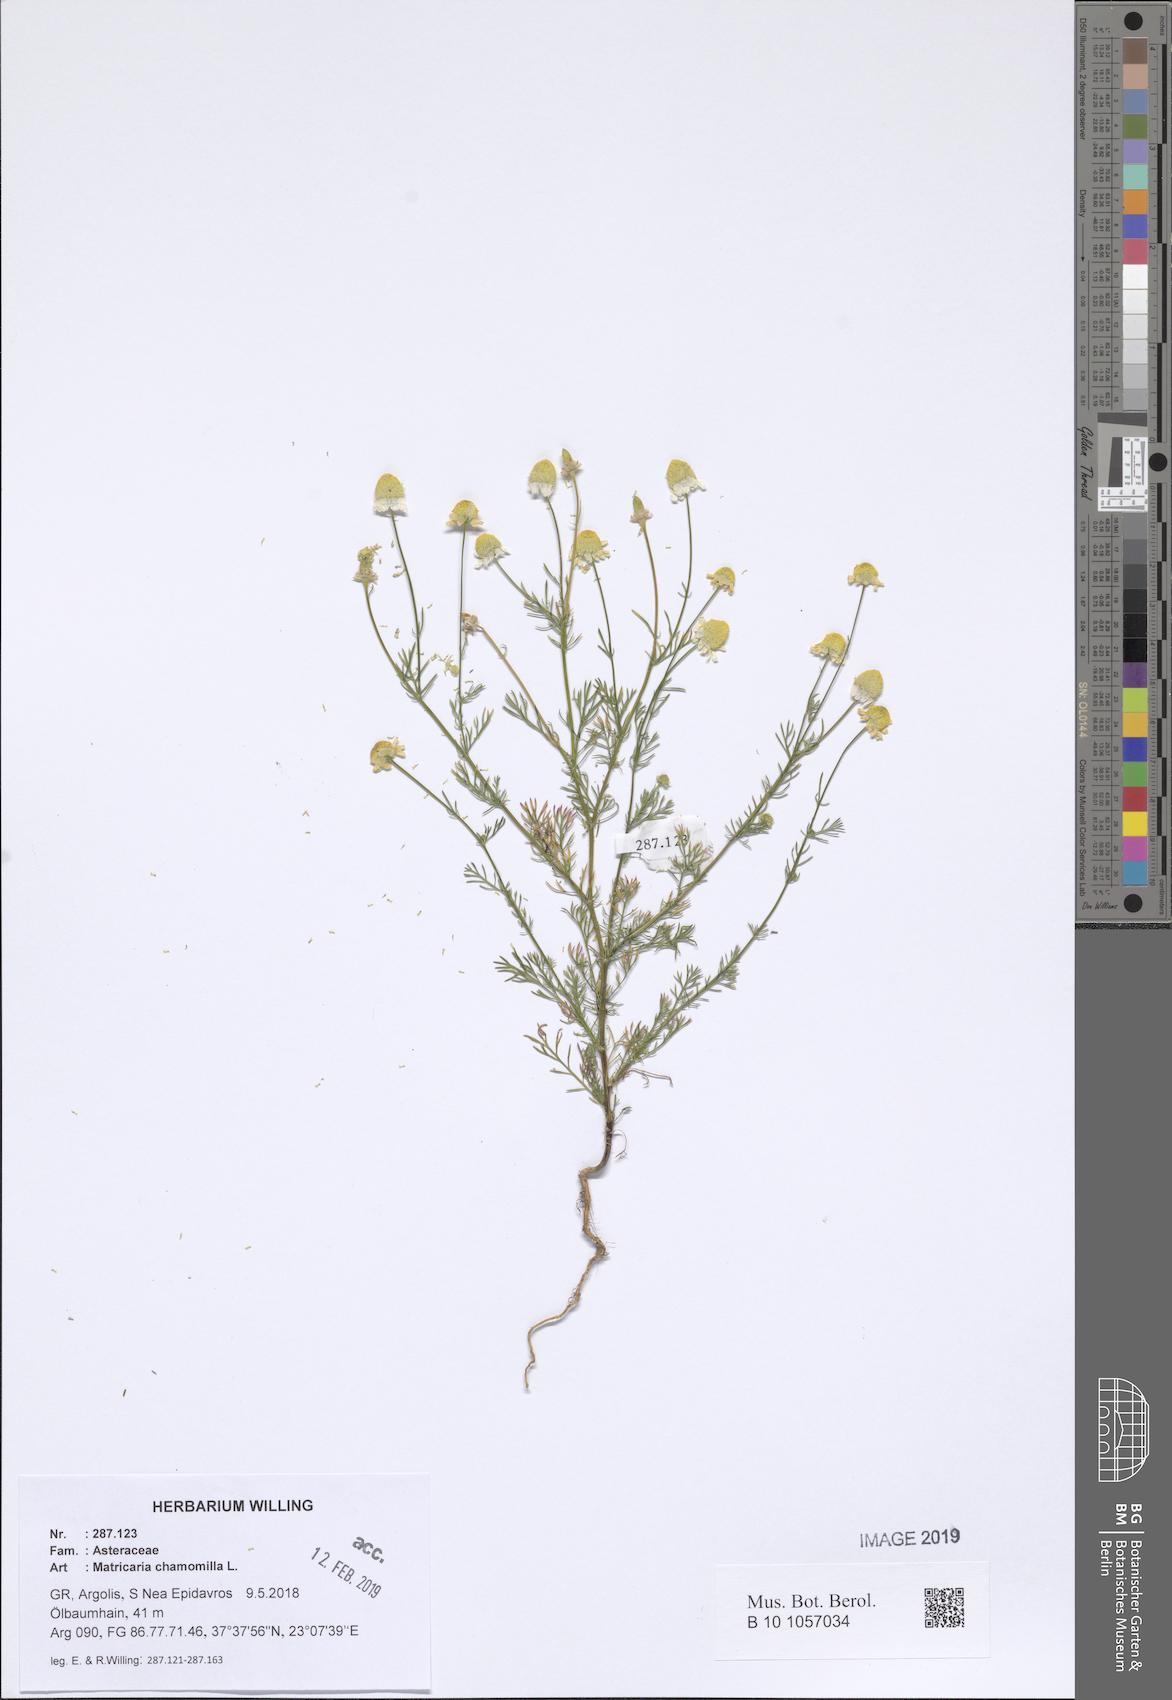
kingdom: Plantae
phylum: Tracheophyta
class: Magnoliopsida
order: Asterales
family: Asteraceae
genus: Matricaria
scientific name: Matricaria chamomilla
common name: Scented mayweed
